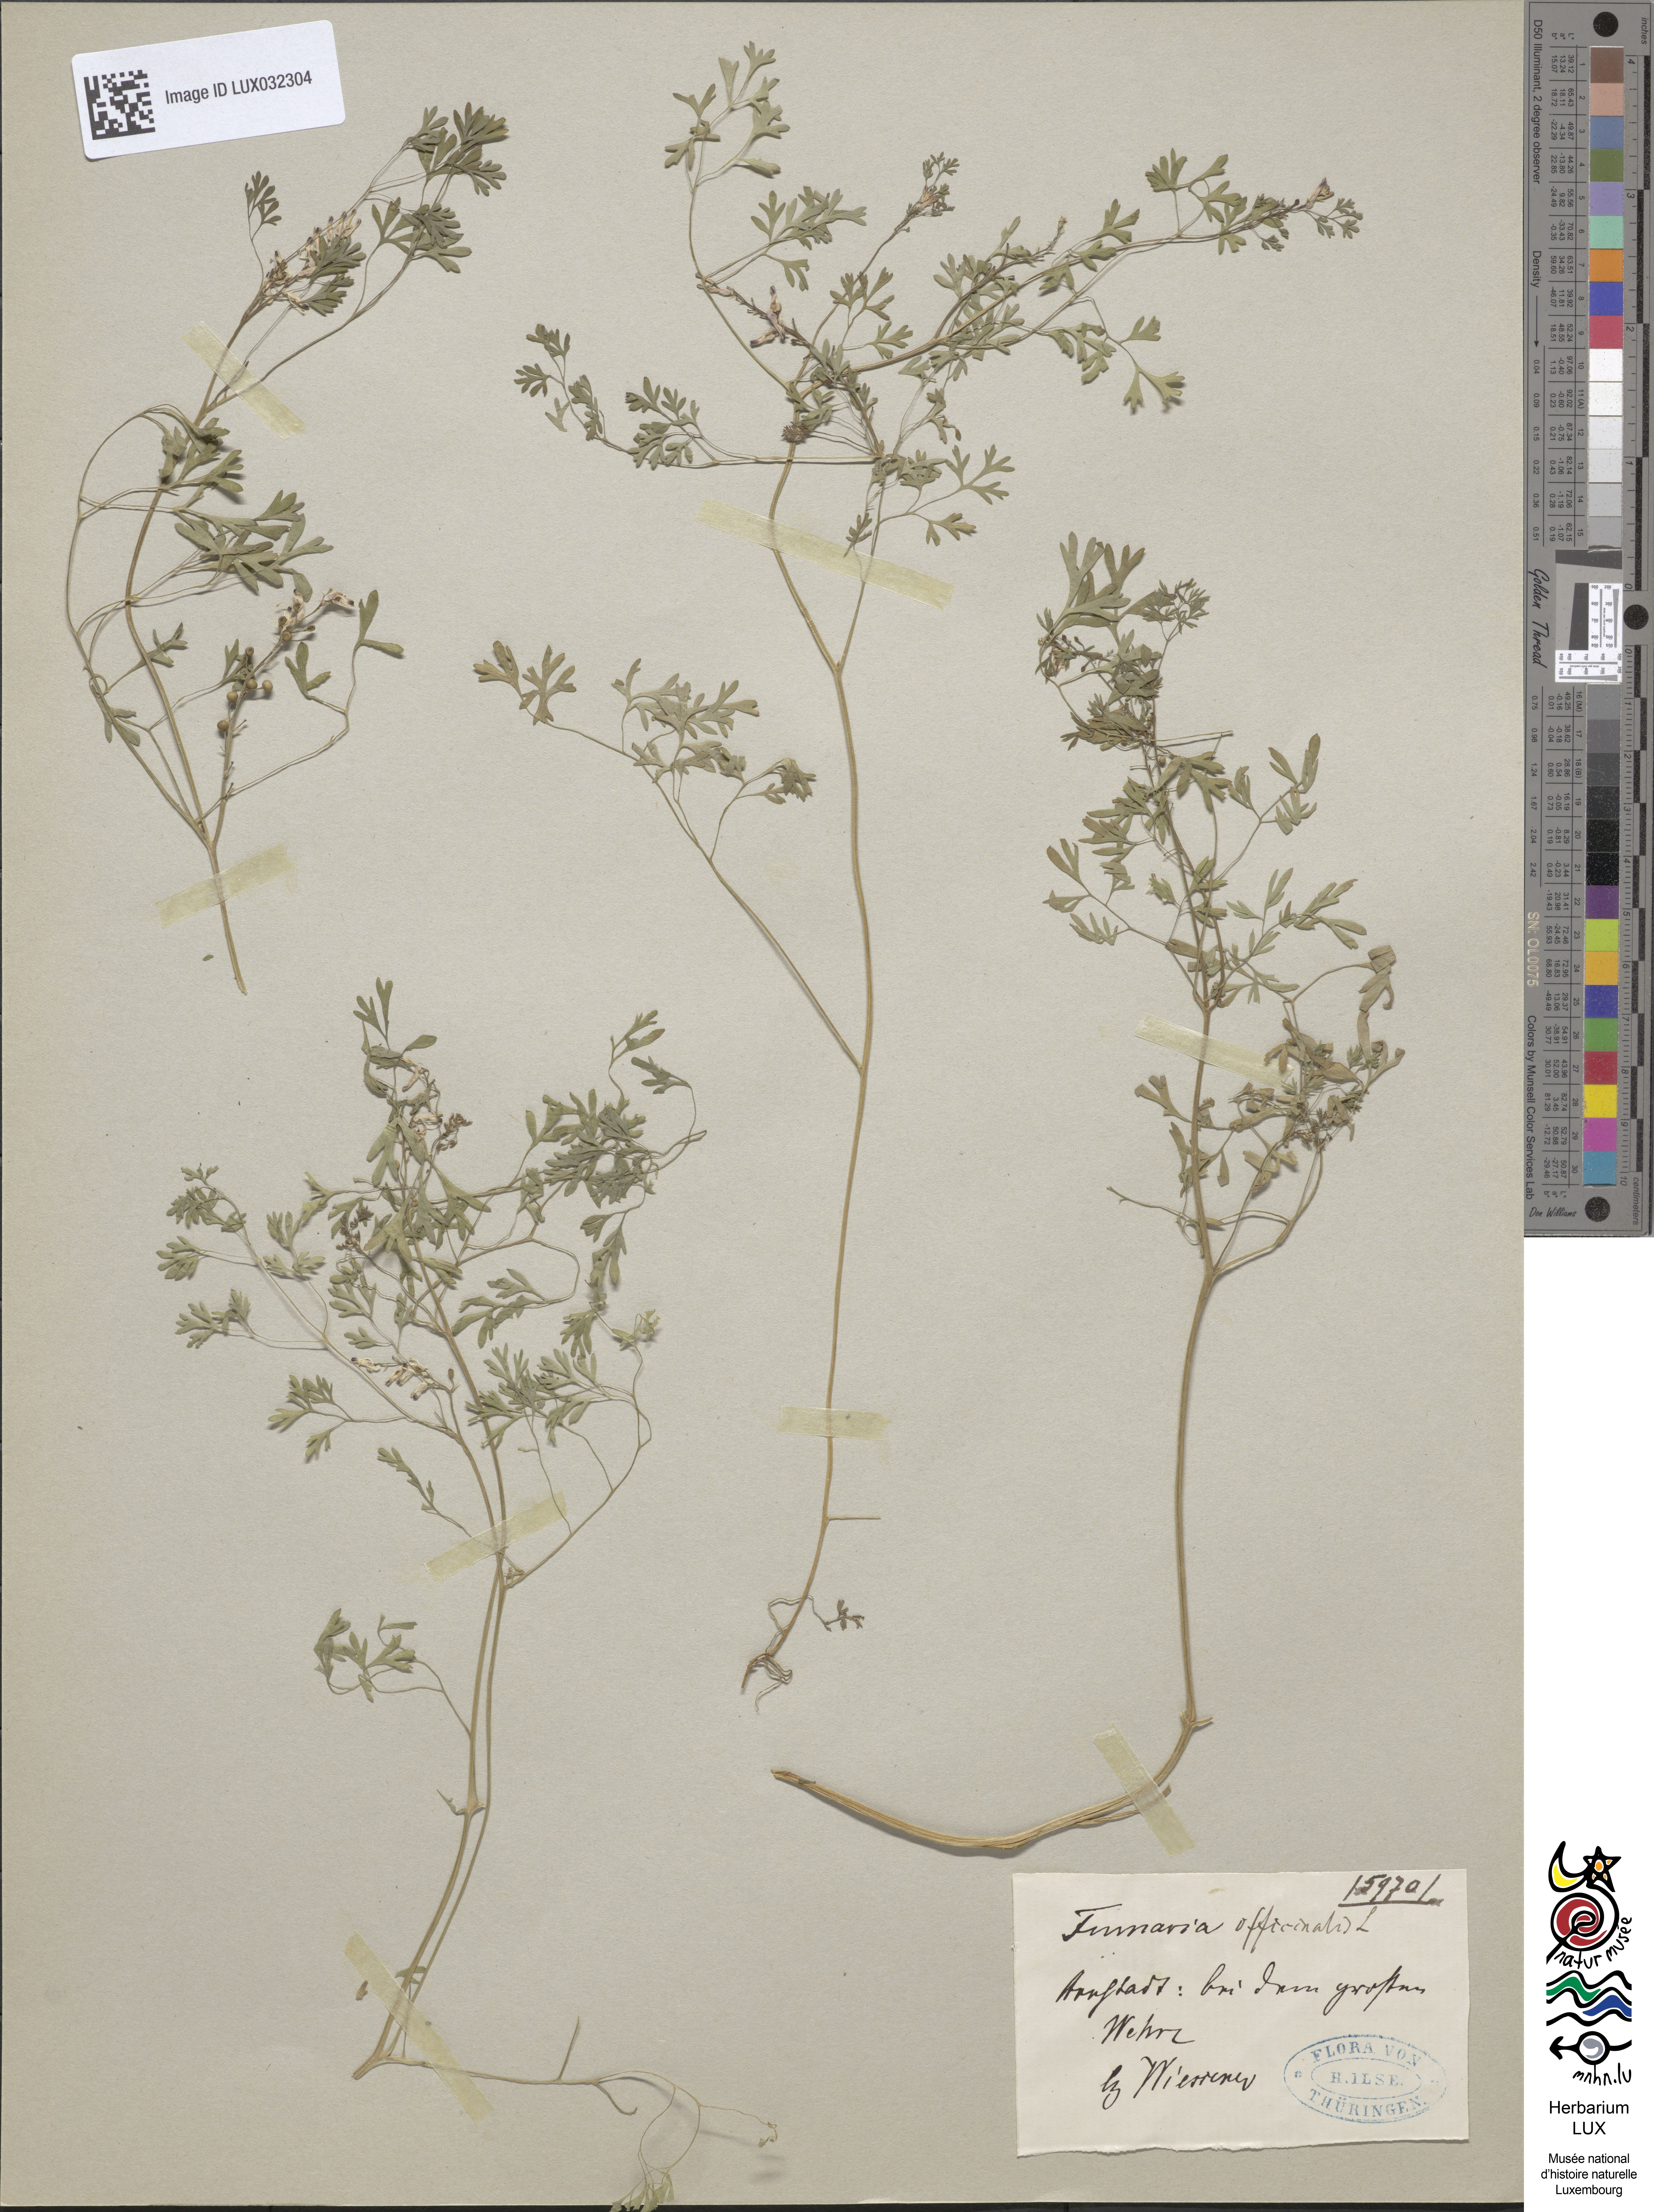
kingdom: Plantae
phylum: Tracheophyta
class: Magnoliopsida
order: Ranunculales
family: Papaveraceae
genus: Fumaria
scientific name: Fumaria officinalis
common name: Common fumitory
